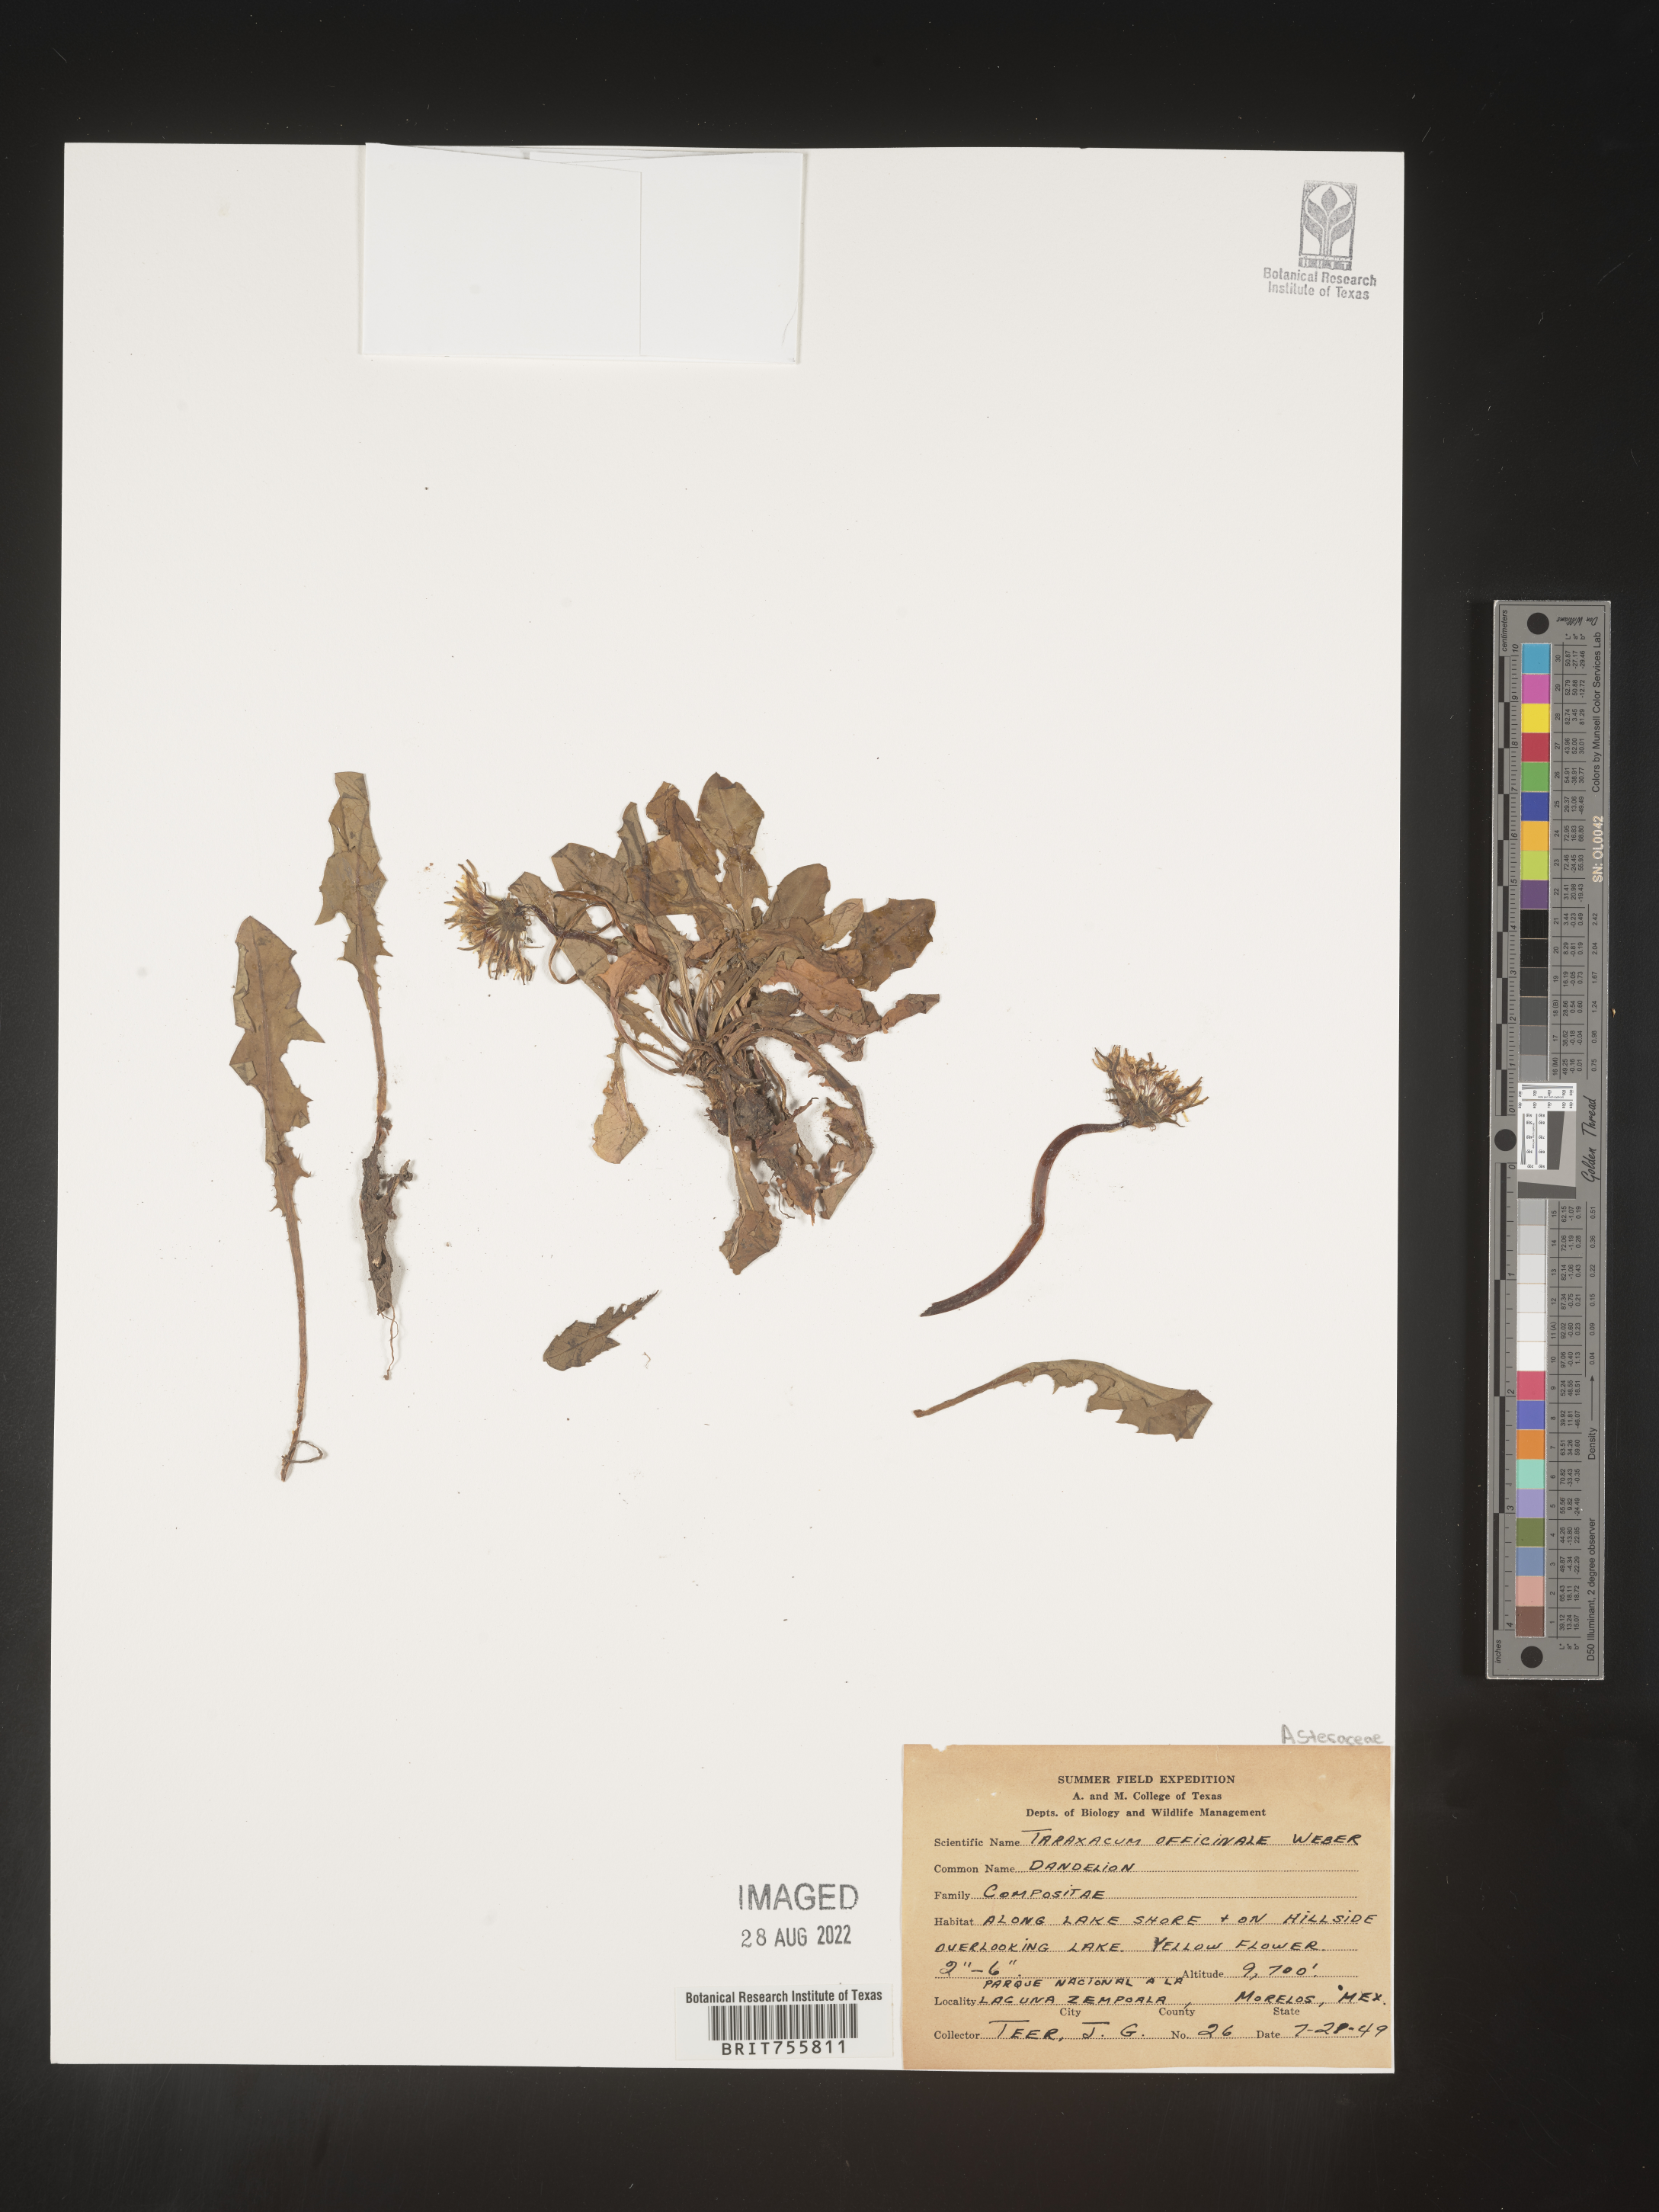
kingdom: Plantae
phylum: Tracheophyta
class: Magnoliopsida
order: Asterales
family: Asteraceae
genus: Taraxacum
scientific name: Taraxacum
